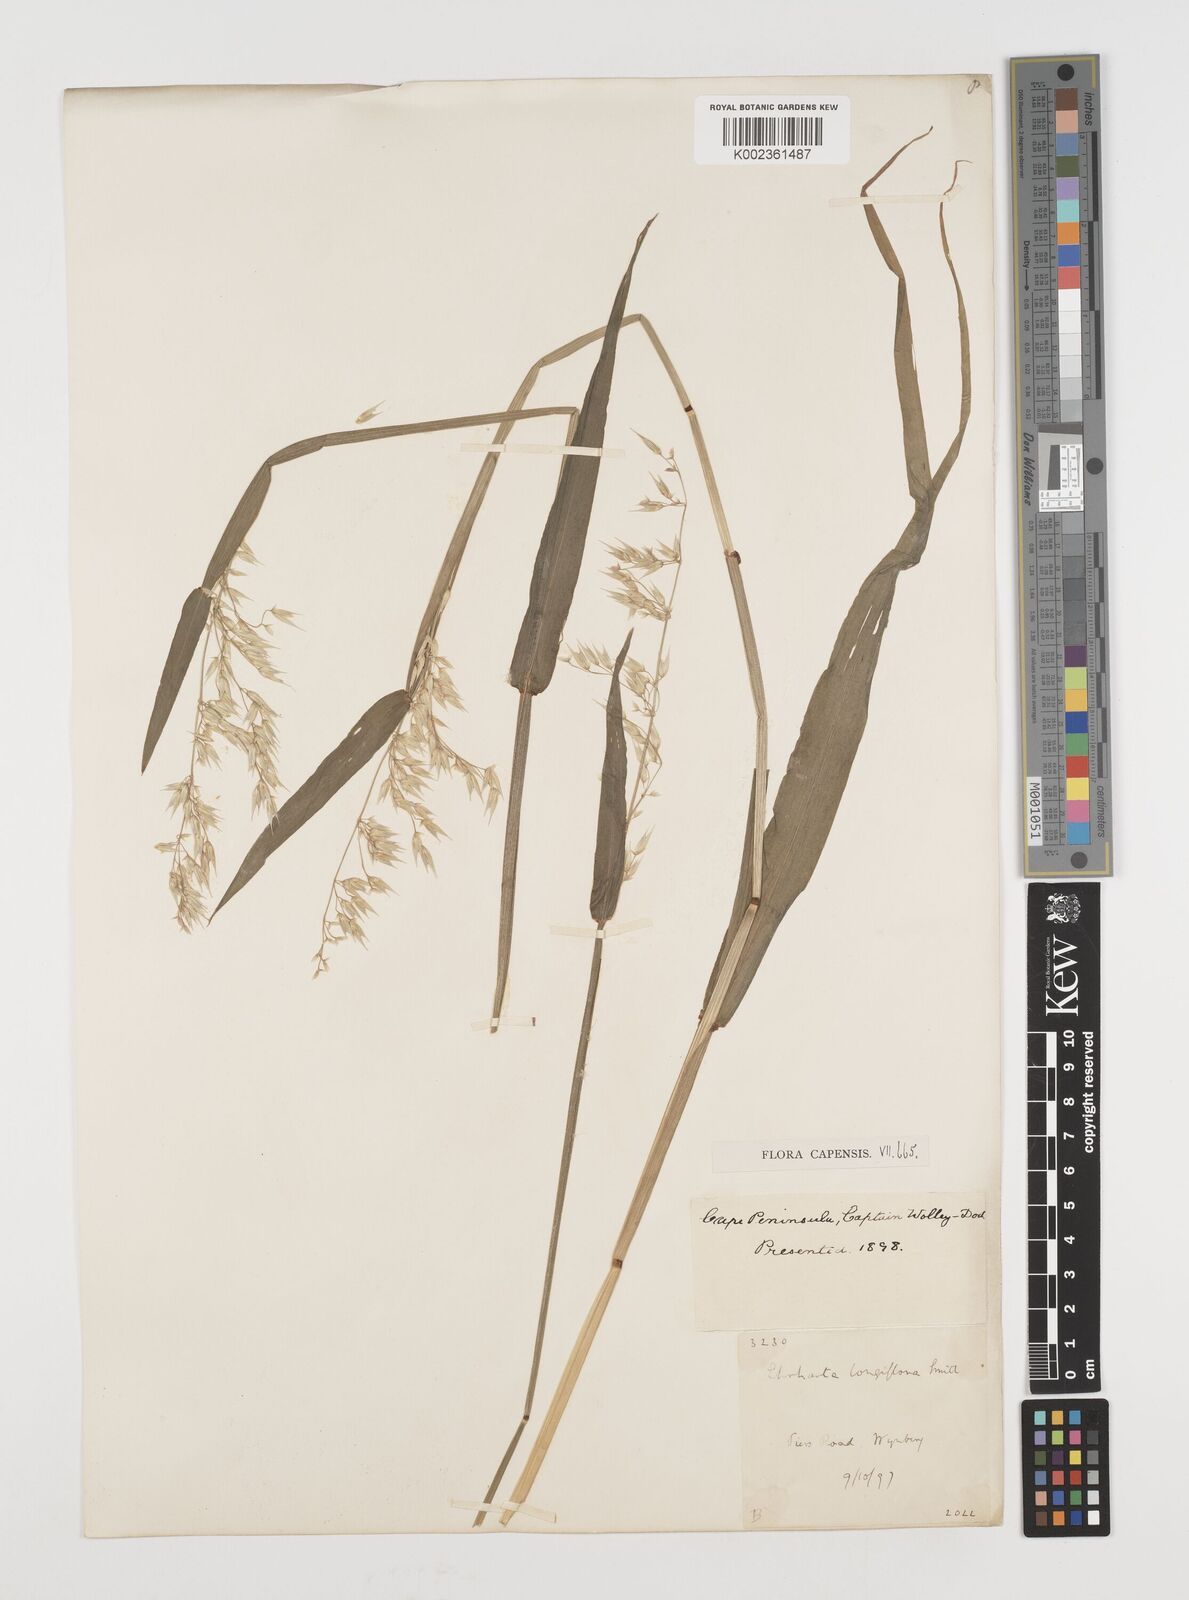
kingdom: Plantae
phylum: Tracheophyta
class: Liliopsida
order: Poales
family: Poaceae
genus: Ehrharta
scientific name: Ehrharta longiflora
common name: Longflowered veldtgrass
